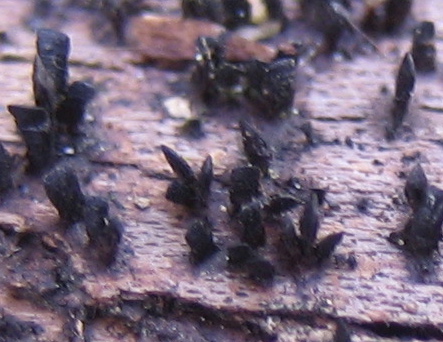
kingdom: Fungi
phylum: Ascomycota
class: Eurotiomycetes
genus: Glyphium
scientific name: Glyphium elatum
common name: kuløkse
